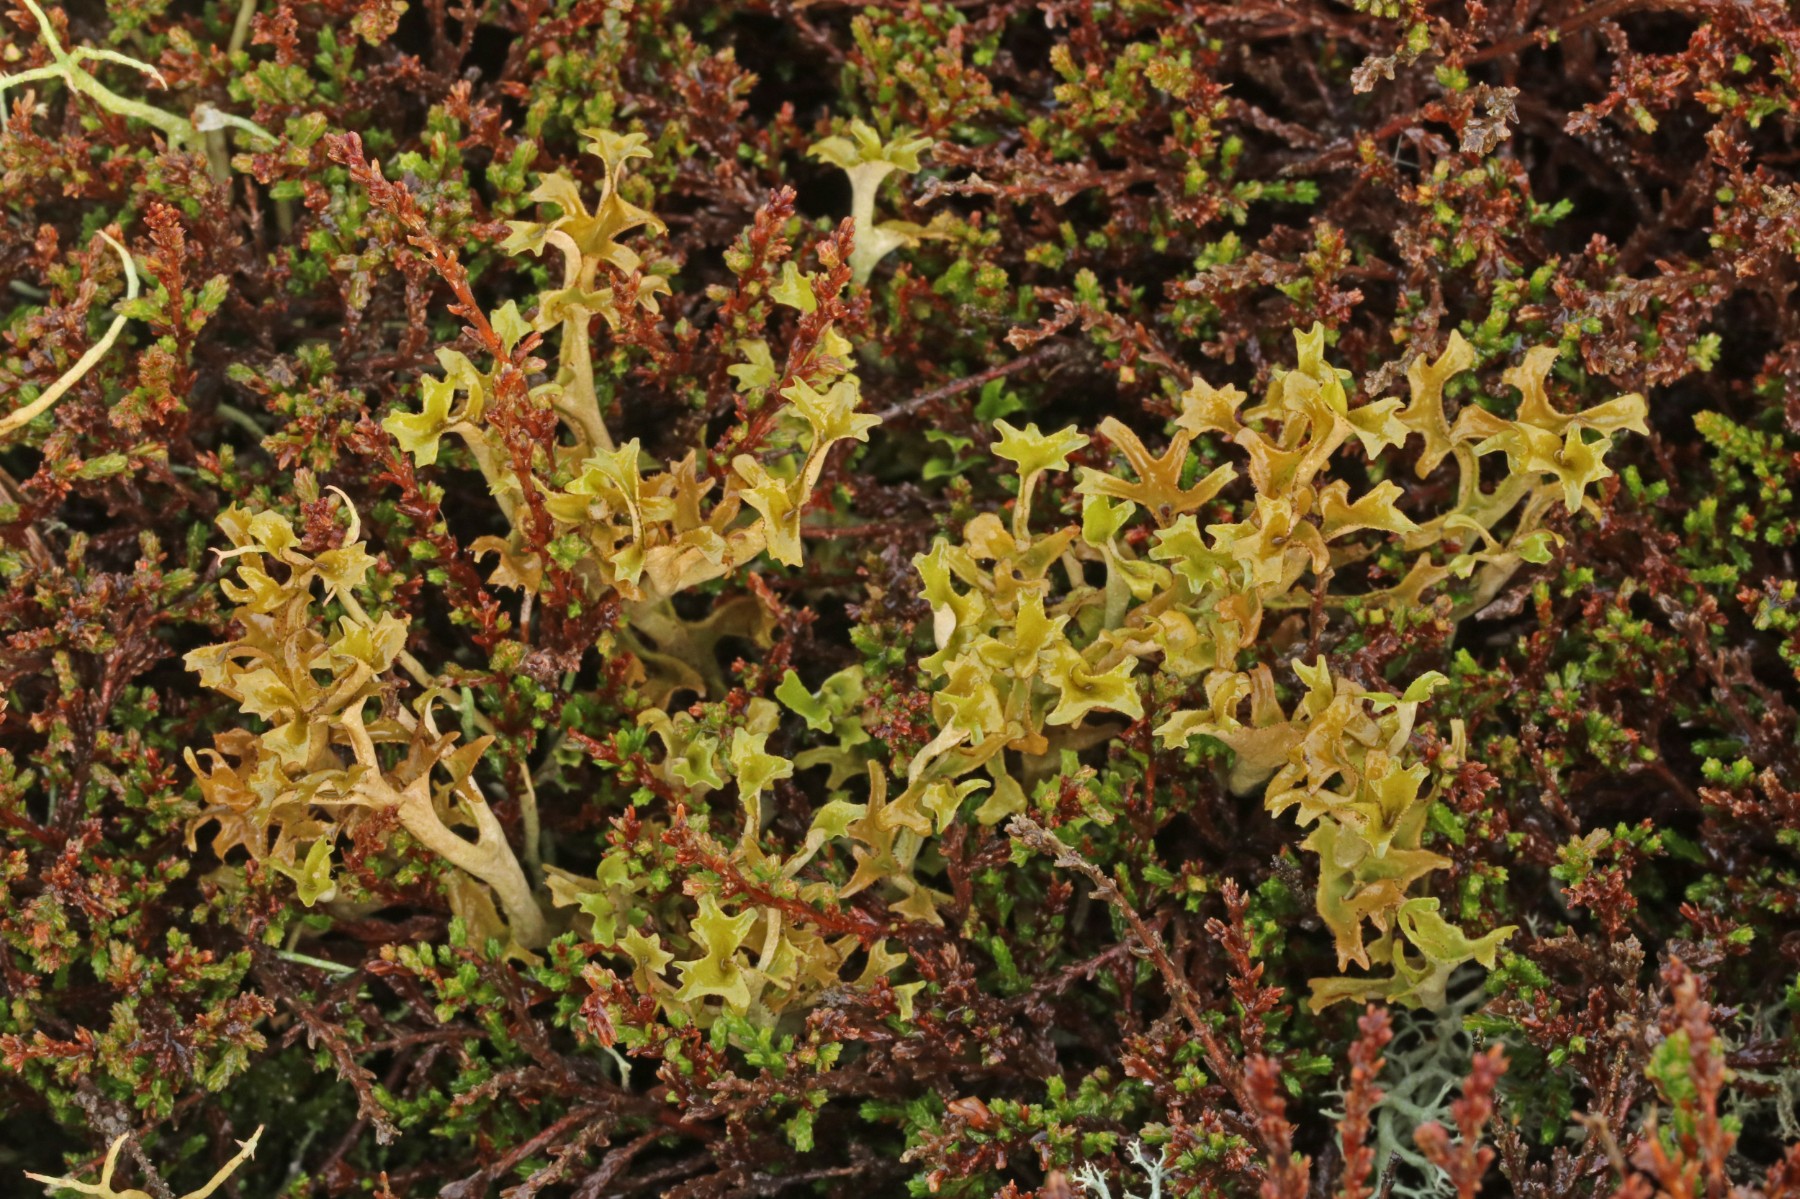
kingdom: Fungi
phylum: Ascomycota
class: Lecanoromycetes
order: Lecanorales
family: Parmeliaceae
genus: Cetraria
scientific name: Cetraria islandica
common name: islandsk kruslav
